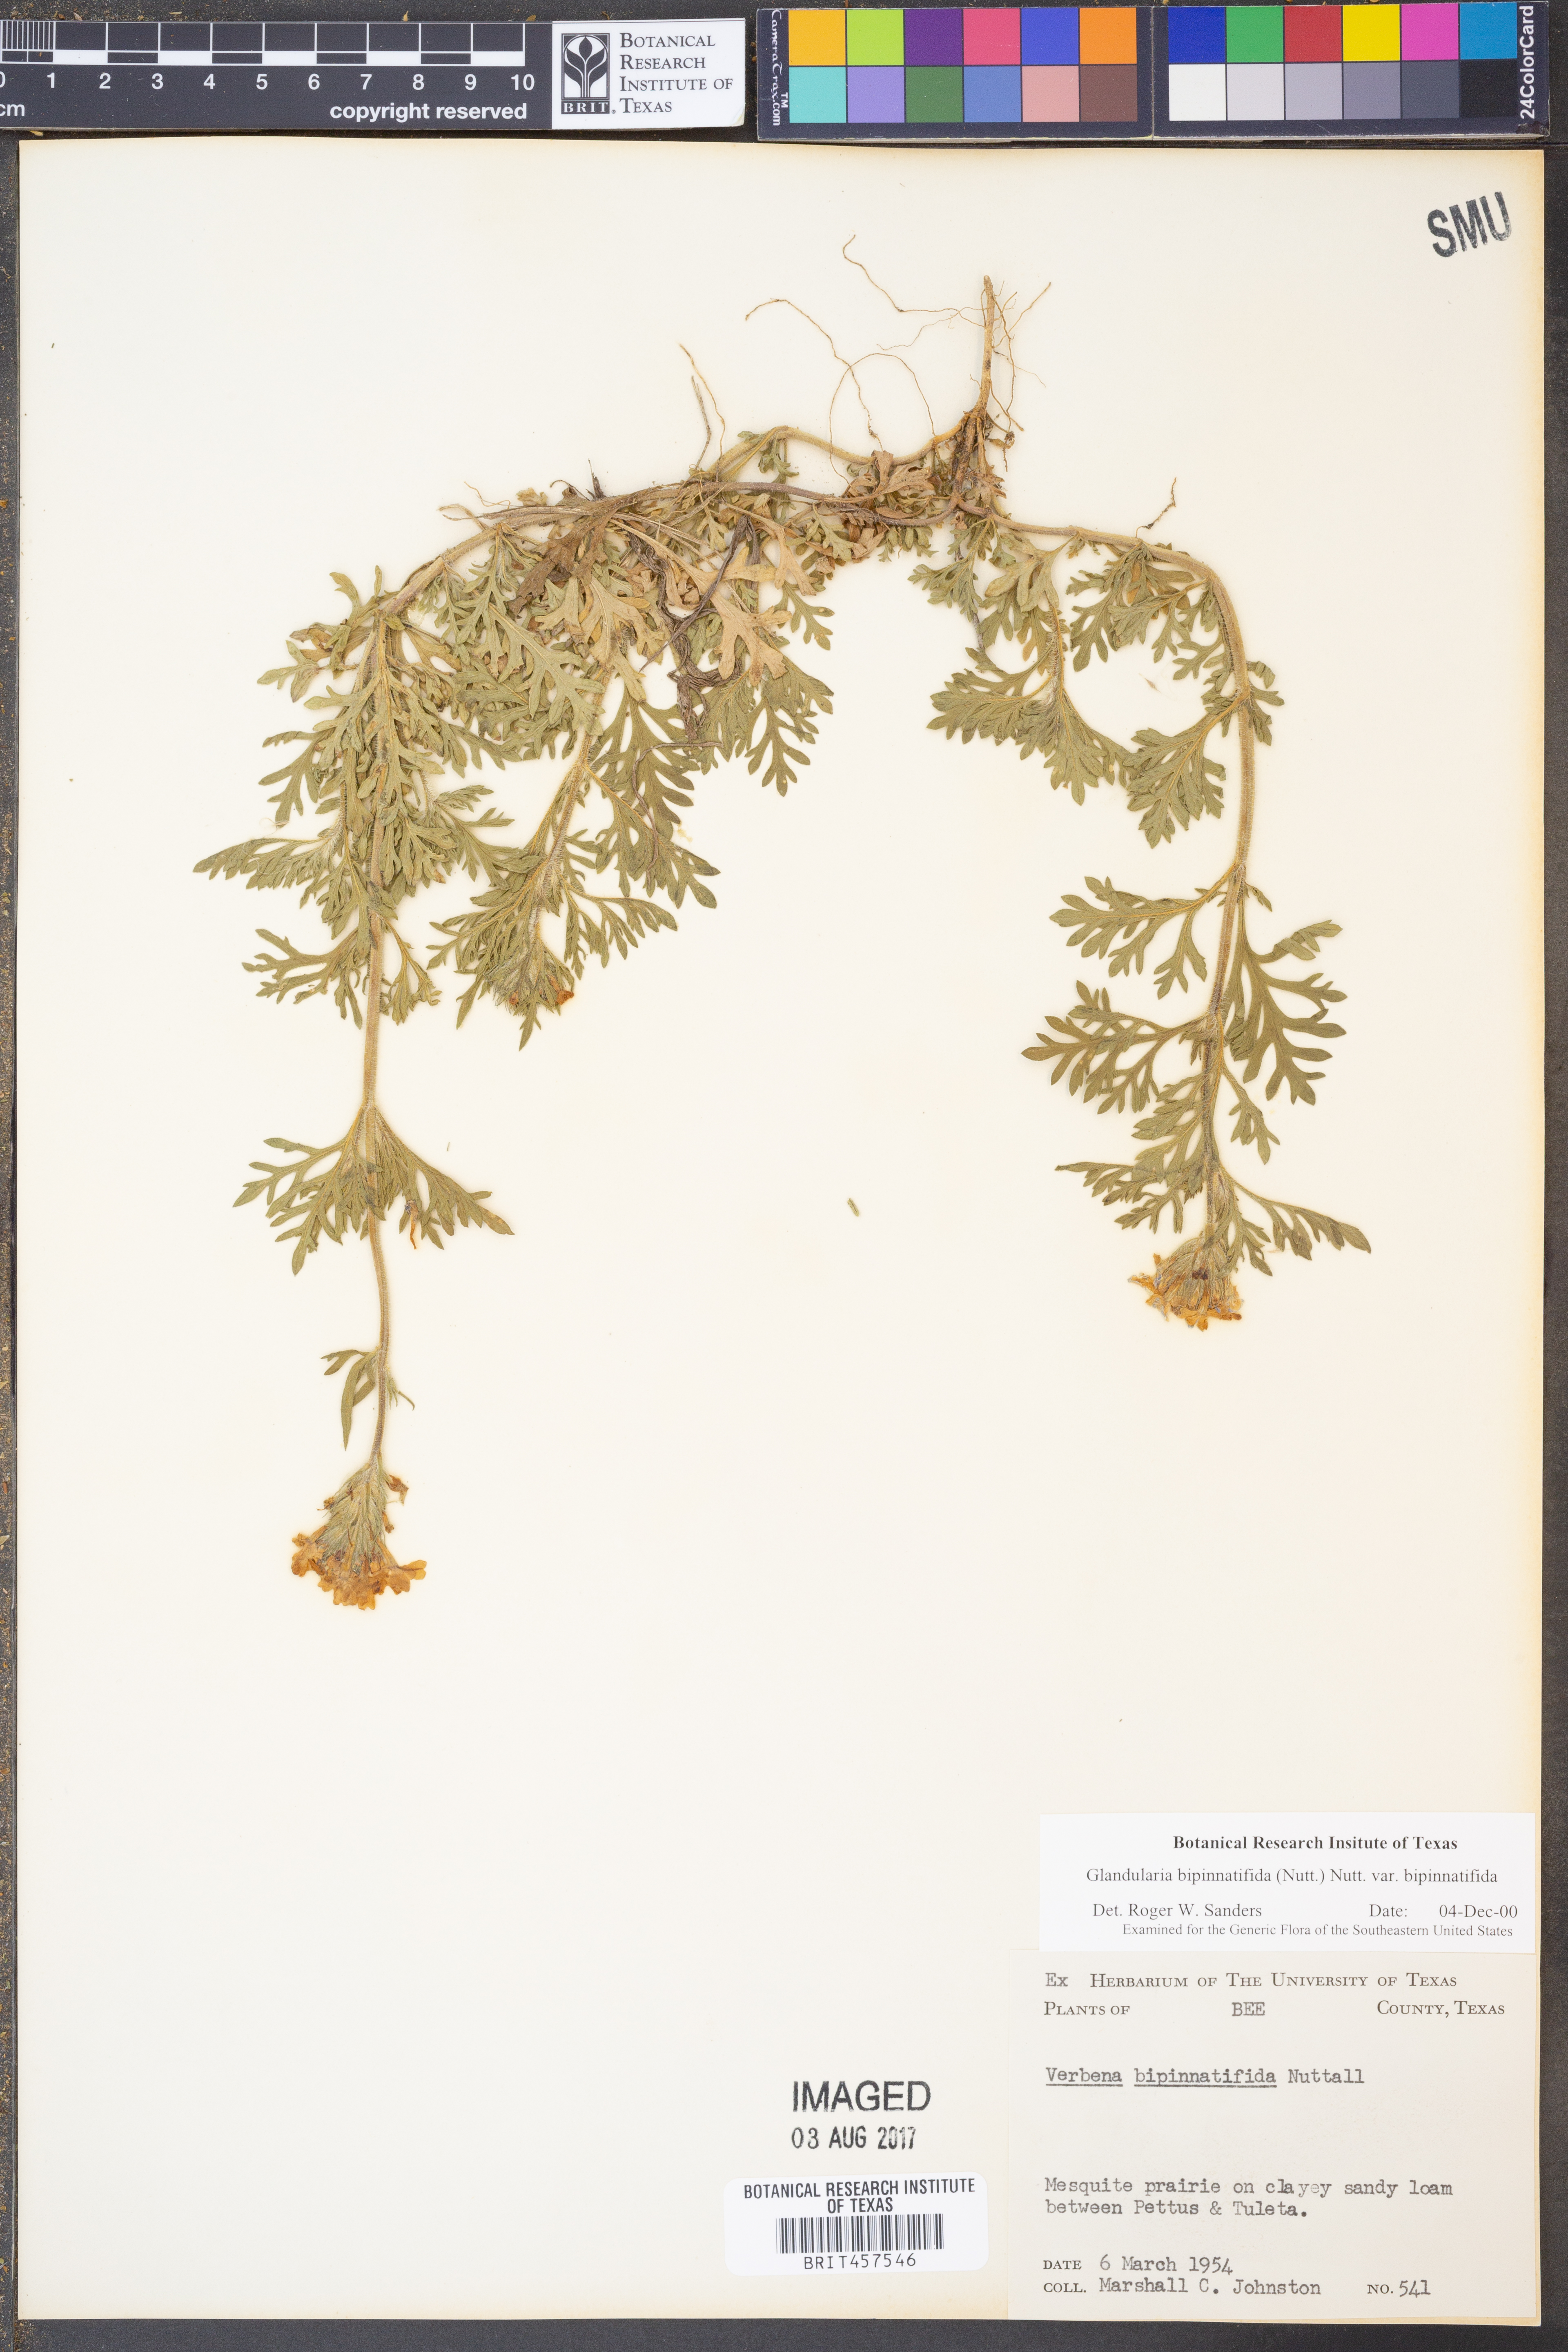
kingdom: Plantae
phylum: Tracheophyta
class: Magnoliopsida
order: Lamiales
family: Verbenaceae
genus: Verbena
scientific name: Verbena bipinnatifida
